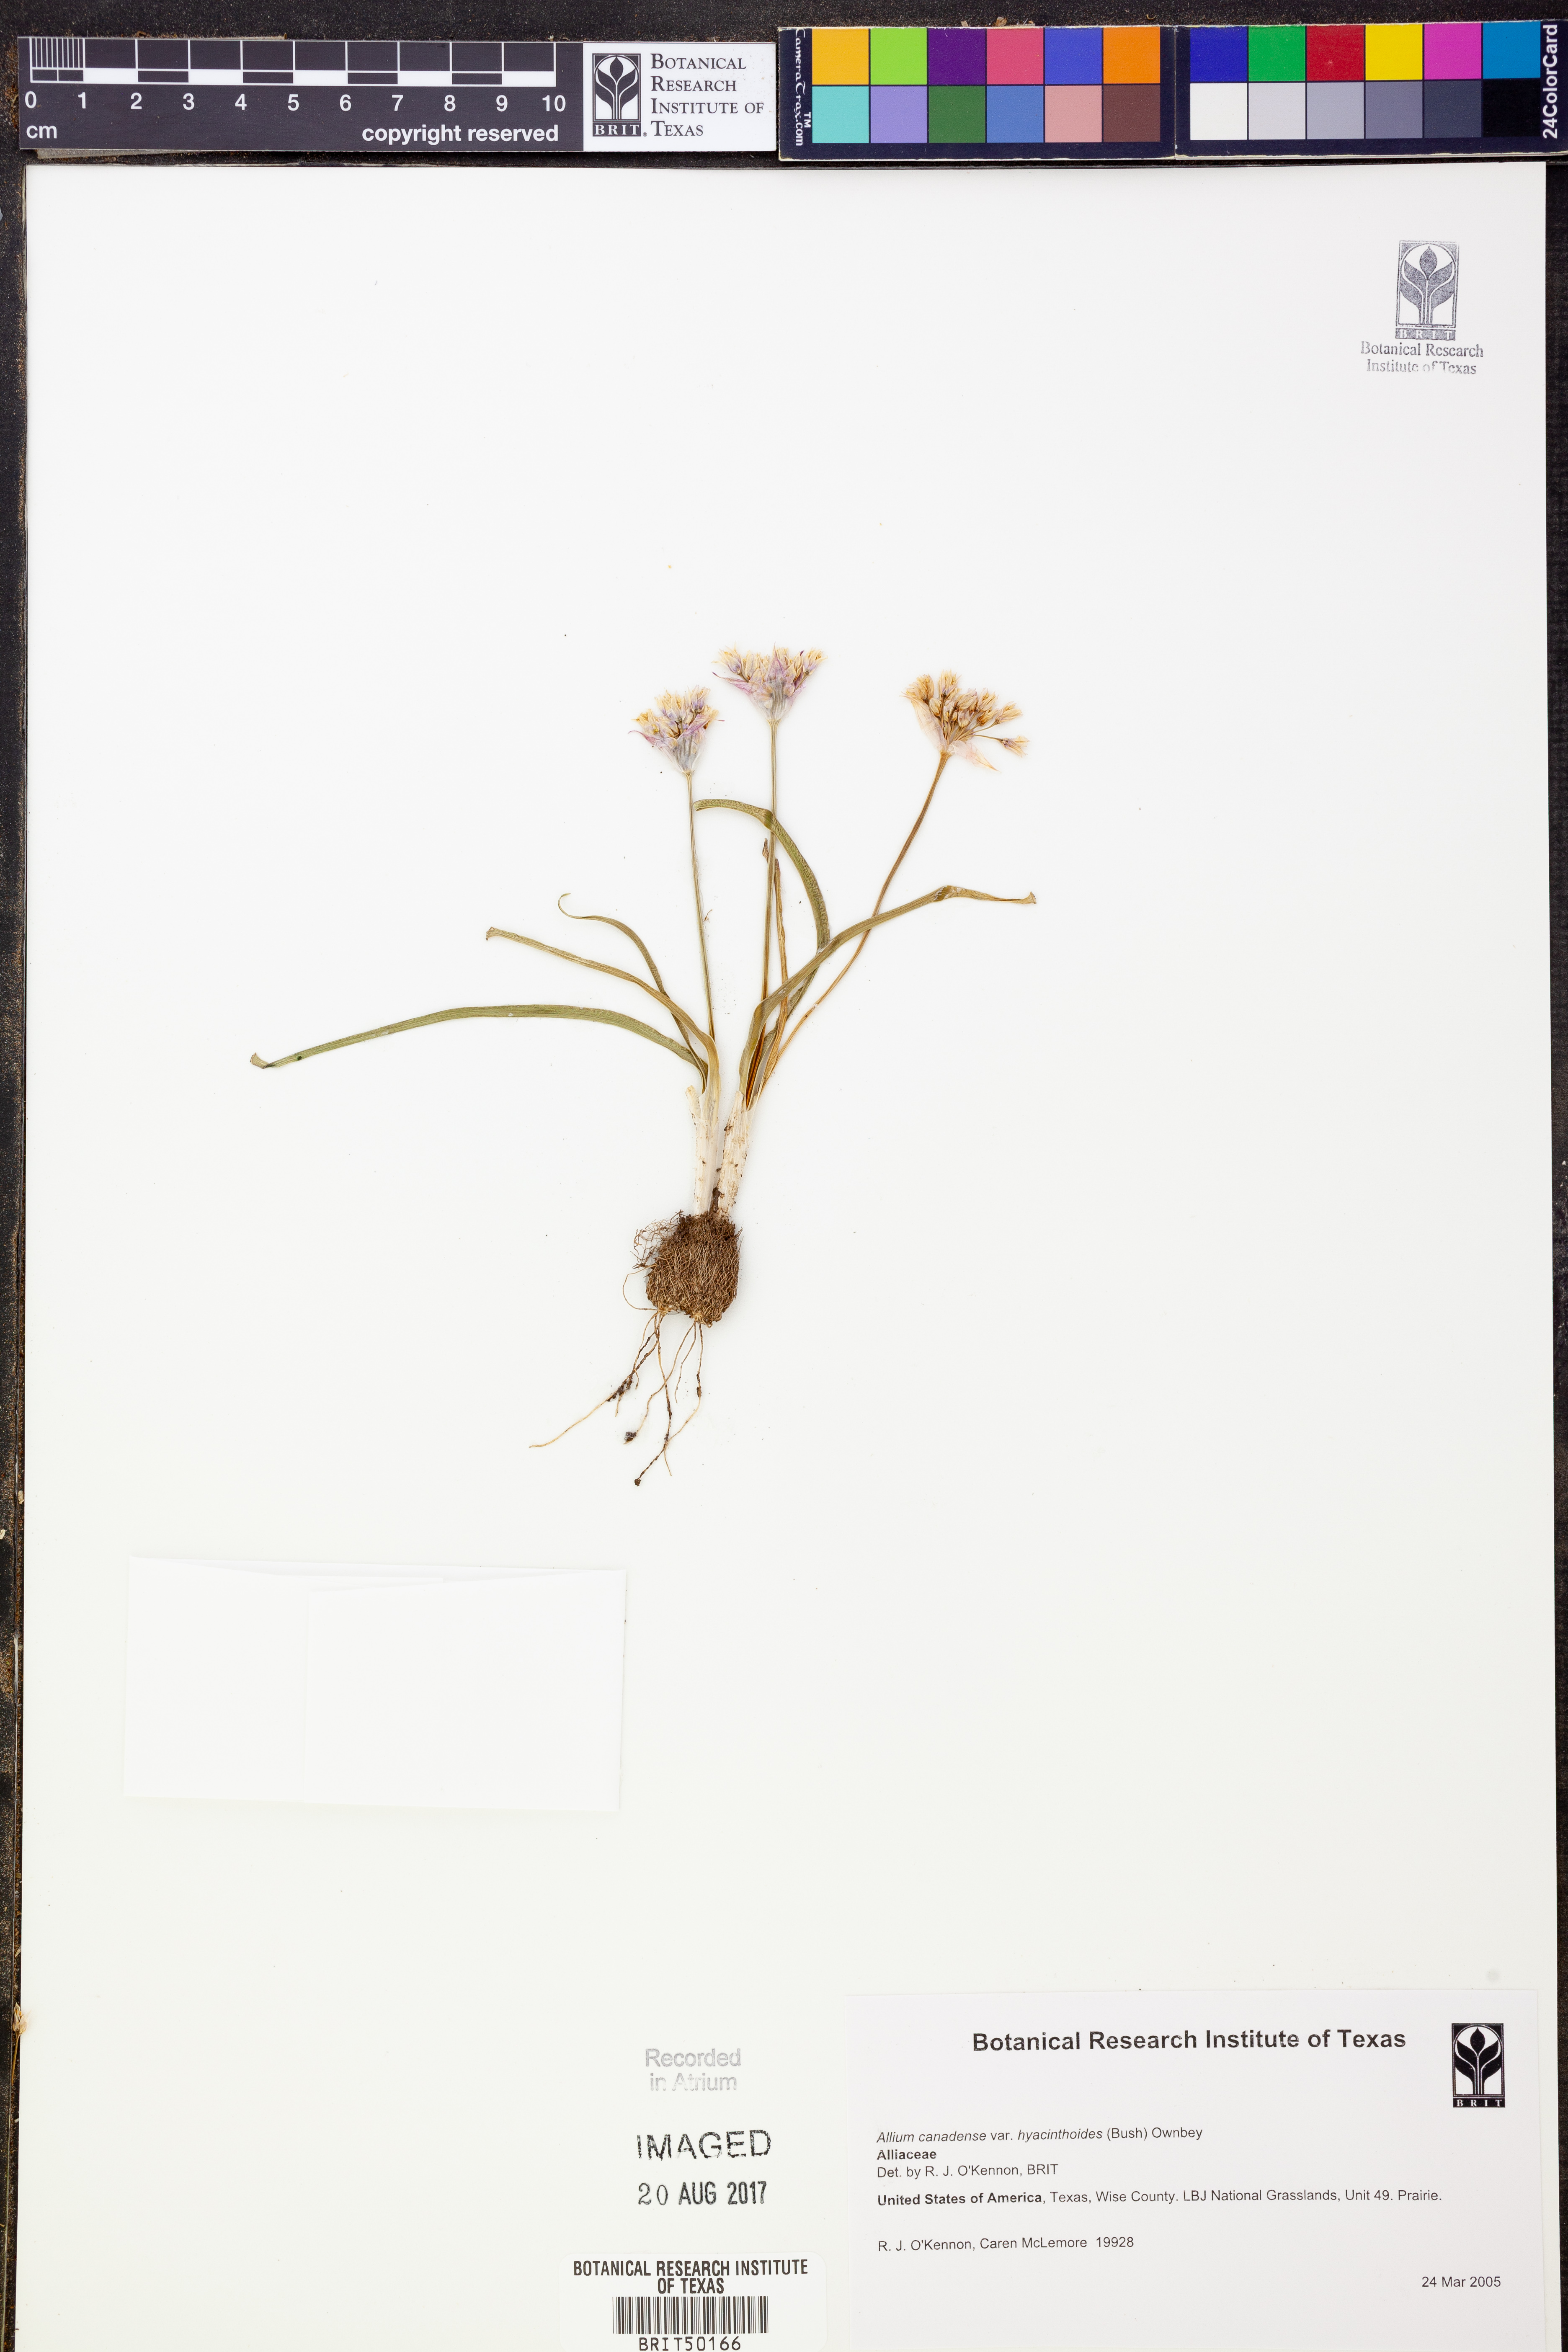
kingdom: Plantae
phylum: Tracheophyta
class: Liliopsida
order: Asparagales
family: Amaryllidaceae
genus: Allium
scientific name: Allium canadense
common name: Meadow garlic
